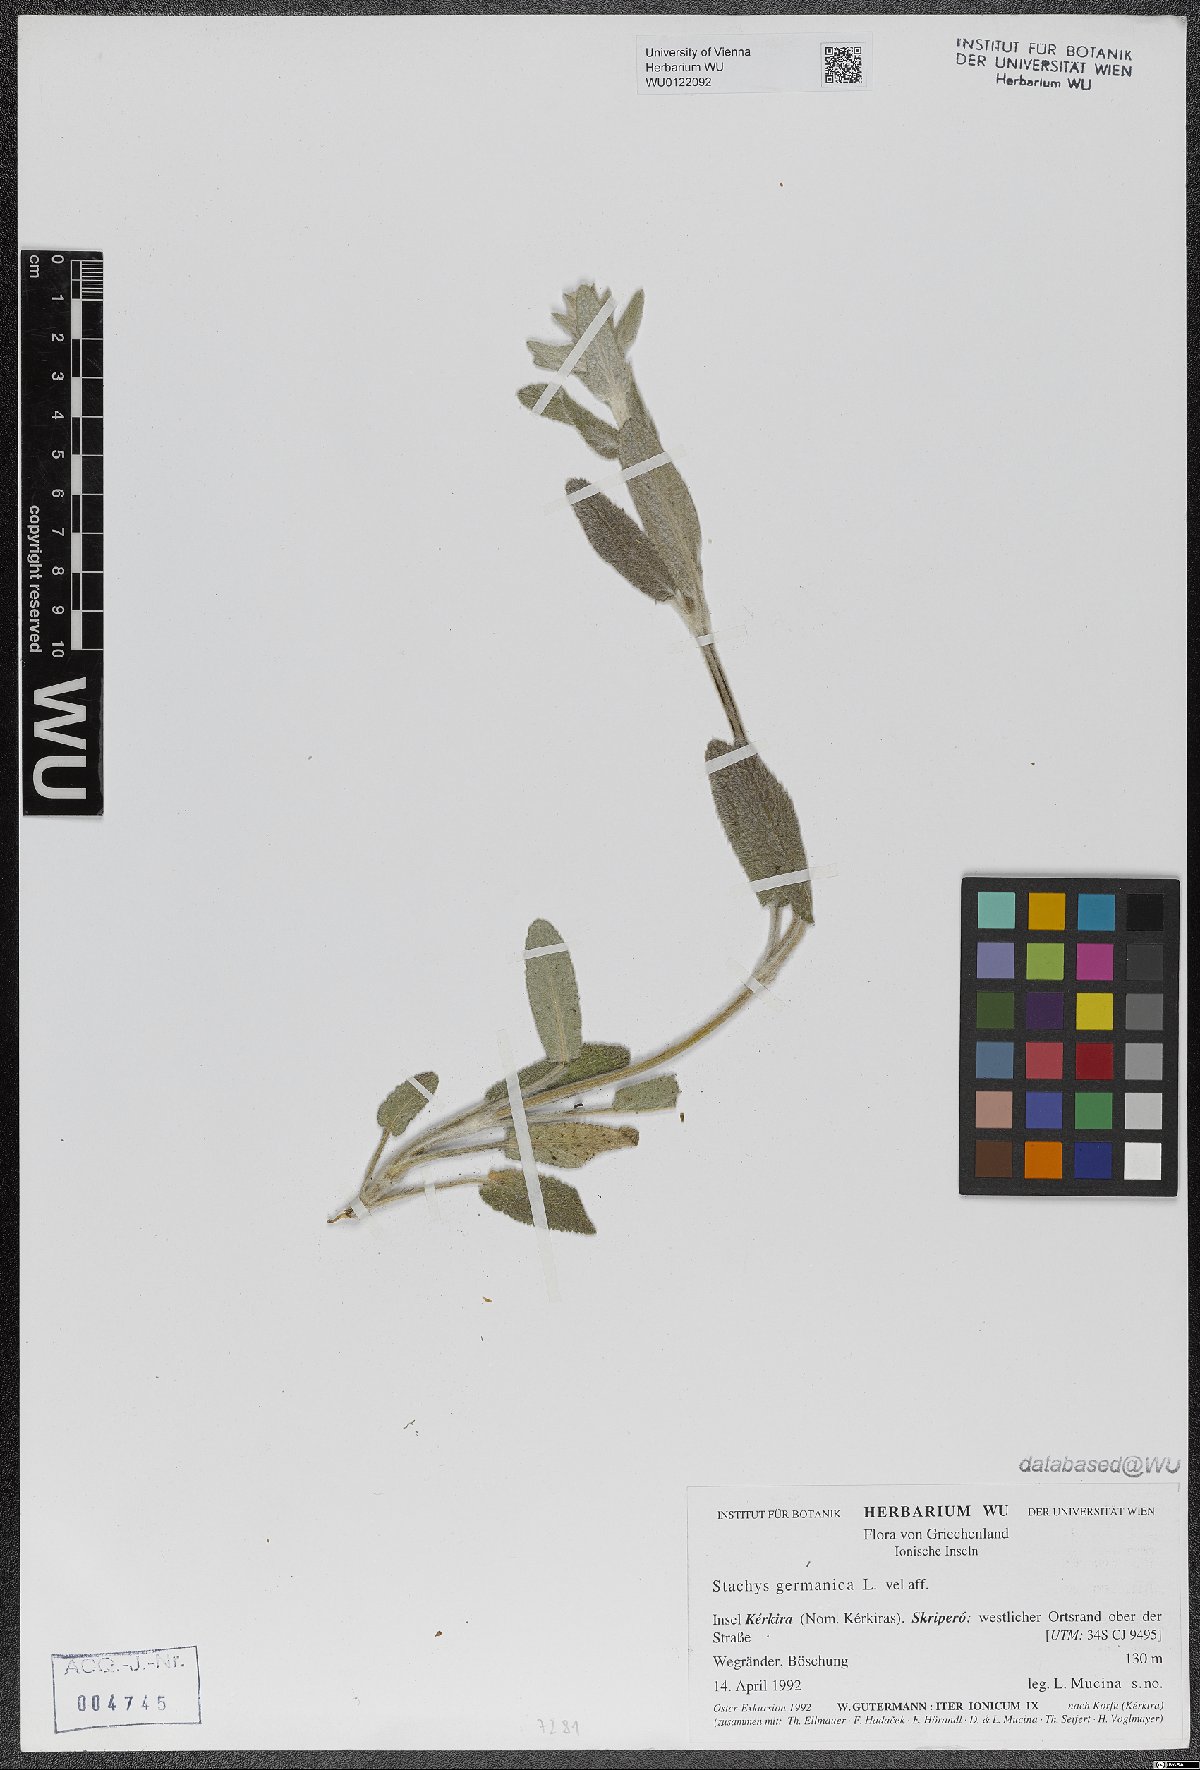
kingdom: Plantae
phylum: Tracheophyta
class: Magnoliopsida
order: Lamiales
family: Lamiaceae
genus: Stachys
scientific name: Stachys germanica
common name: Downy woundwort
